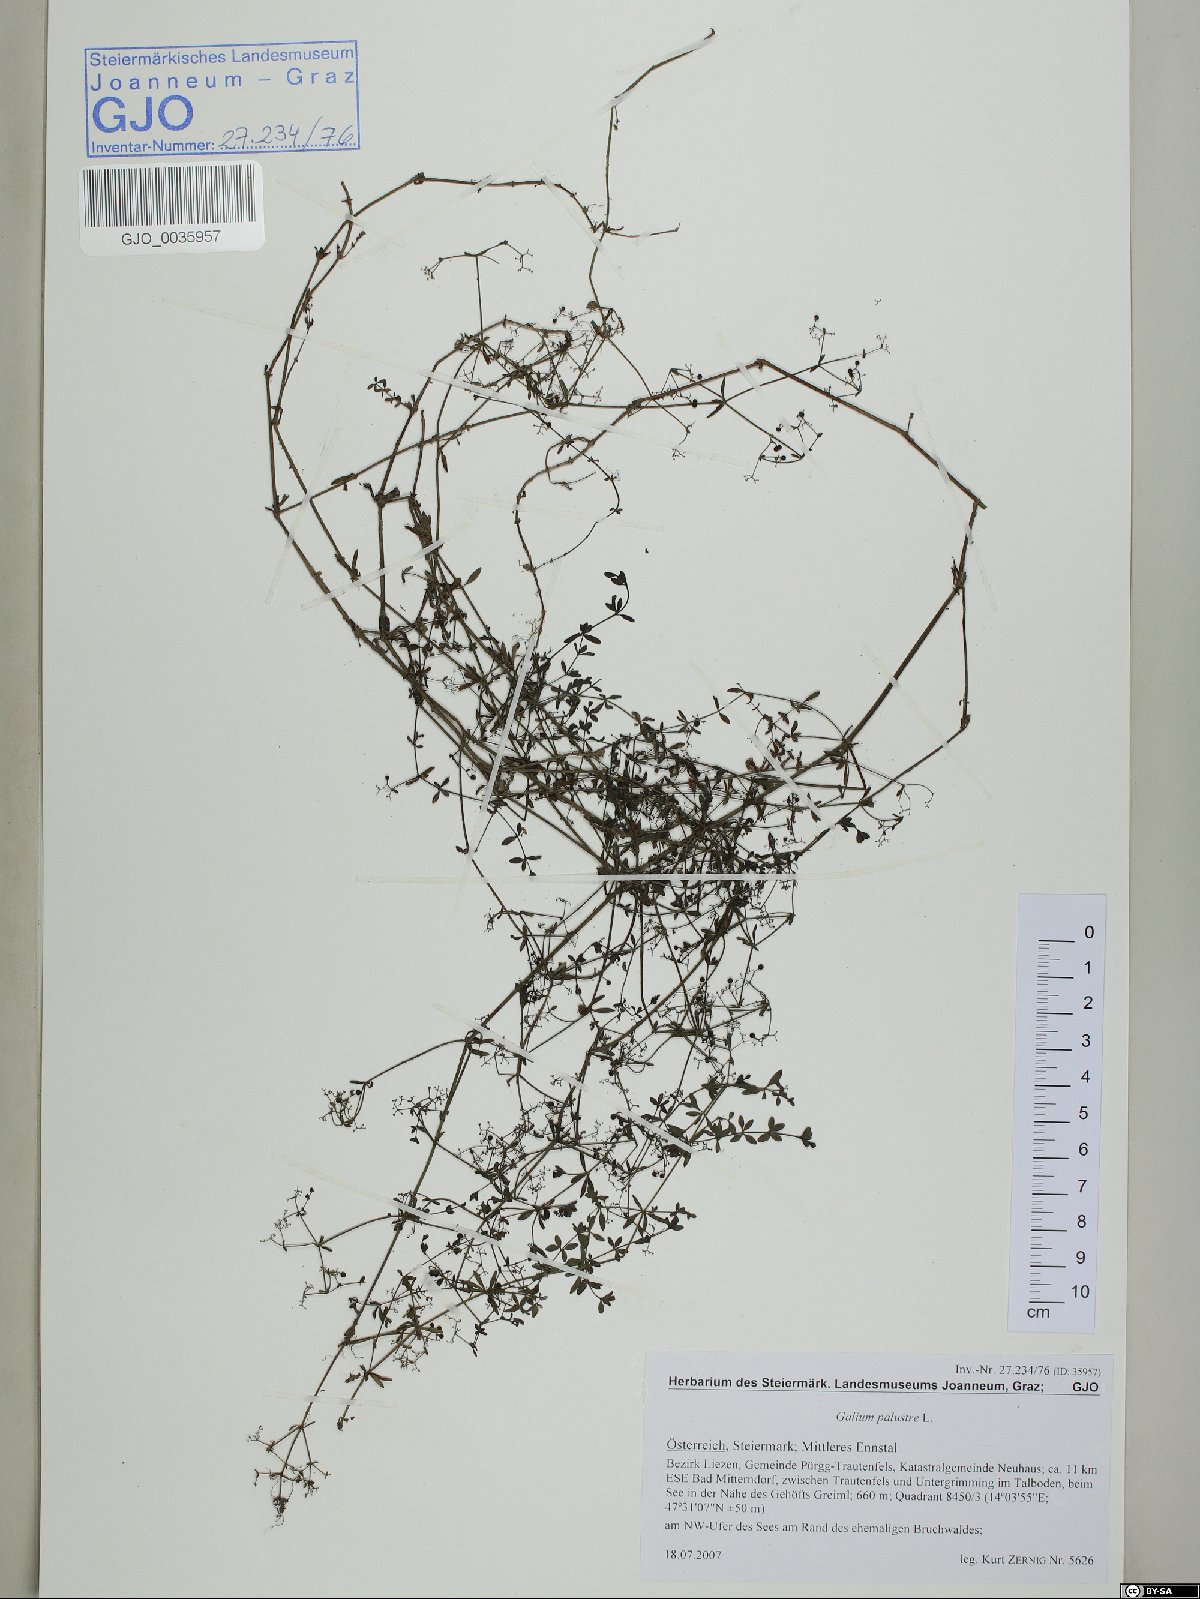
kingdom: Plantae
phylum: Tracheophyta
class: Magnoliopsida
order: Gentianales
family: Rubiaceae
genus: Galium
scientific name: Galium palustre
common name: Common marsh-bedstraw
